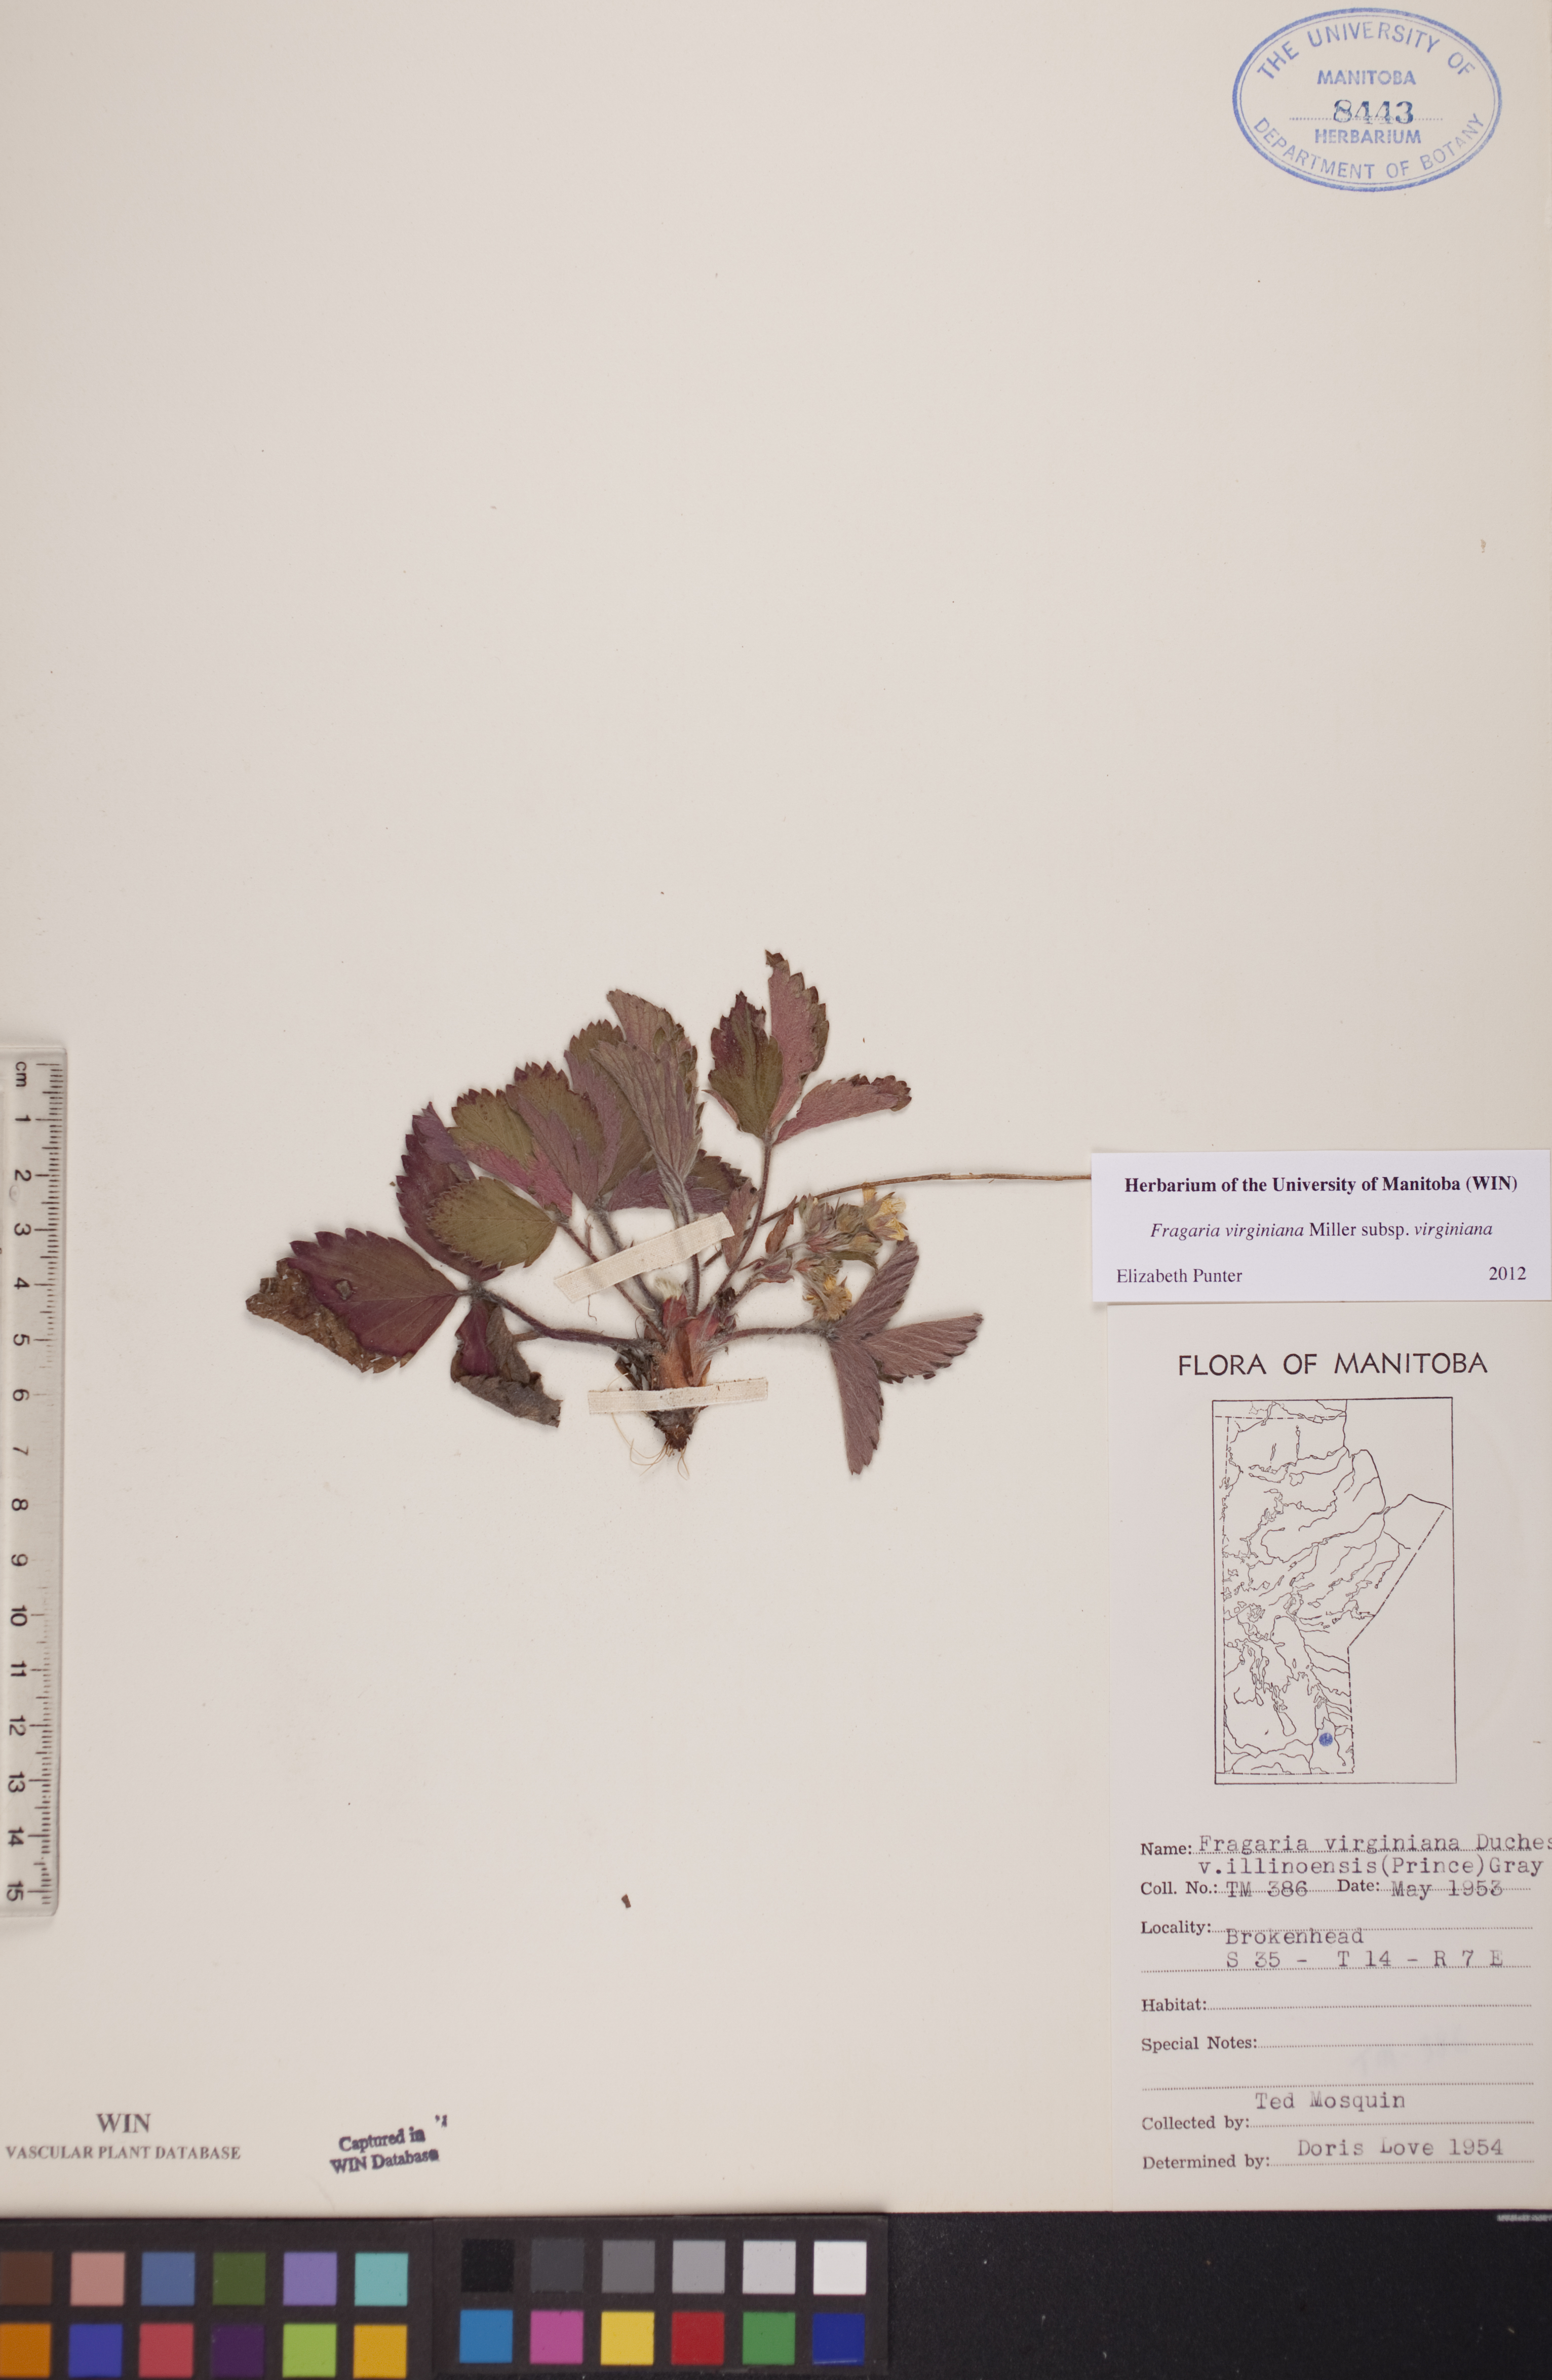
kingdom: Plantae
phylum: Tracheophyta
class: Magnoliopsida
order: Rosales
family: Rosaceae
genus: Fragaria
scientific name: Fragaria virginiana
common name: Thickleaved wild strawberry
